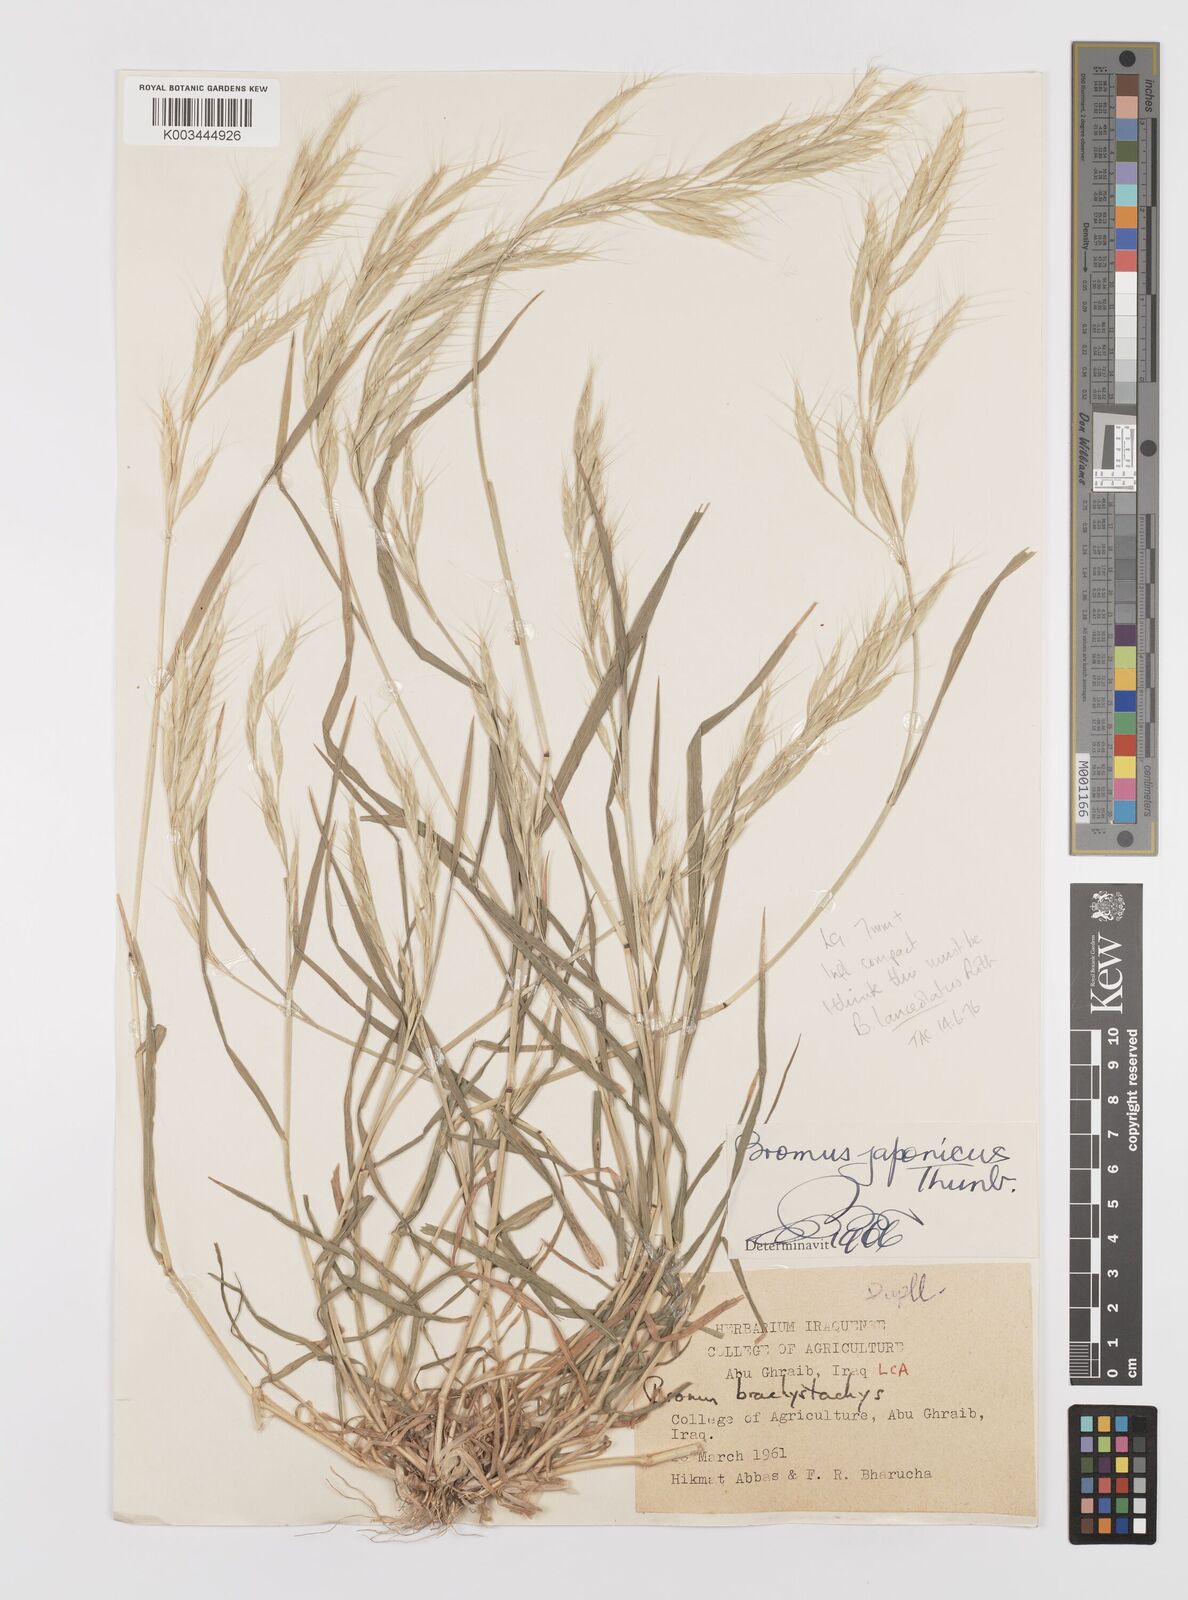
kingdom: Plantae
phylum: Tracheophyta
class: Liliopsida
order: Poales
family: Poaceae
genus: Bromus
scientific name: Bromus lanceolatus
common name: Mediterranean brome
